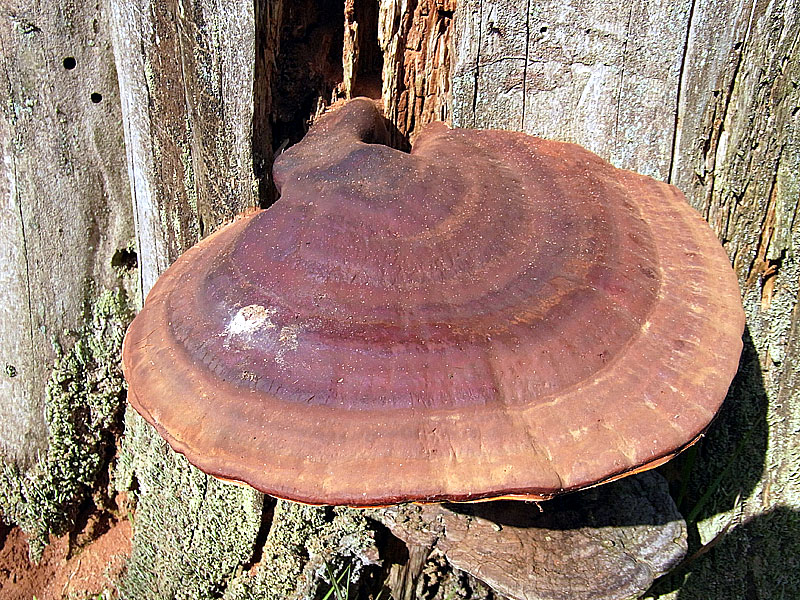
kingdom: Fungi
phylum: Basidiomycota
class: Agaricomycetes
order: Polyporales
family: Polyporaceae
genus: Ganoderma
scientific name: Ganoderma lucidum
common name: skinnende lakporesvamp
